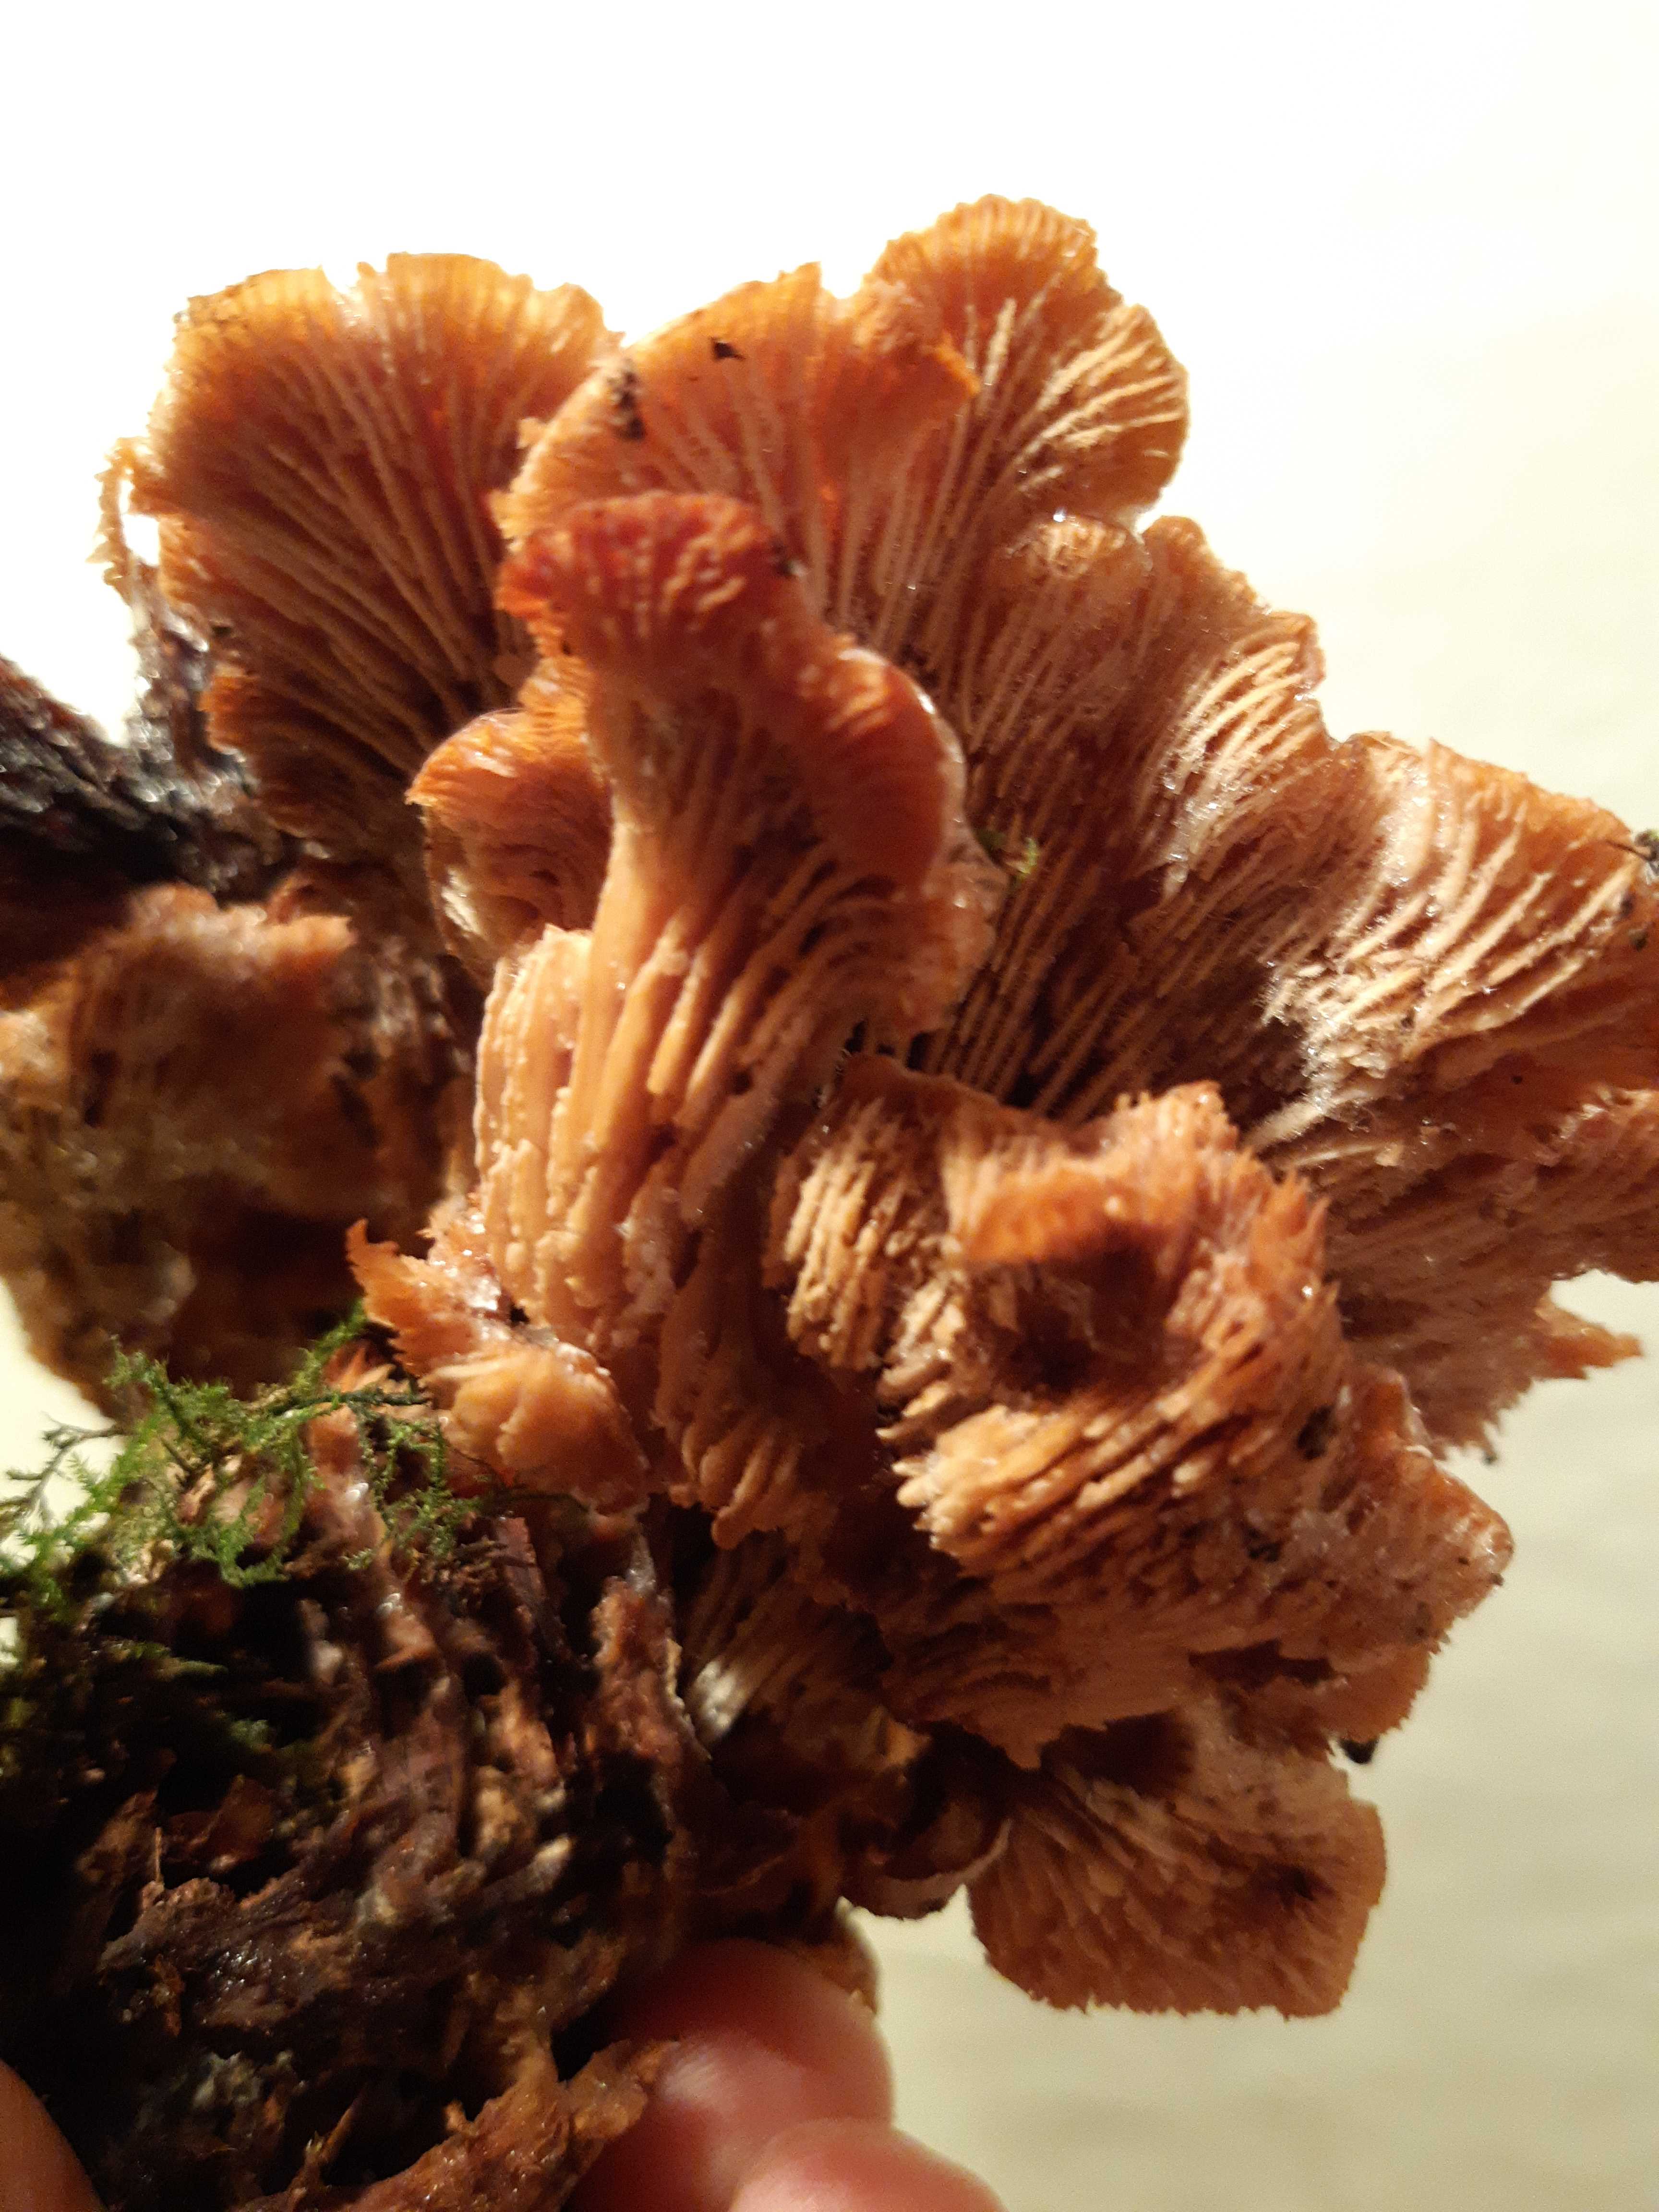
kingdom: Fungi
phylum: Basidiomycota
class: Agaricomycetes
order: Russulales
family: Auriscalpiaceae
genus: Lentinellus
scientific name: Lentinellus cochleatus
